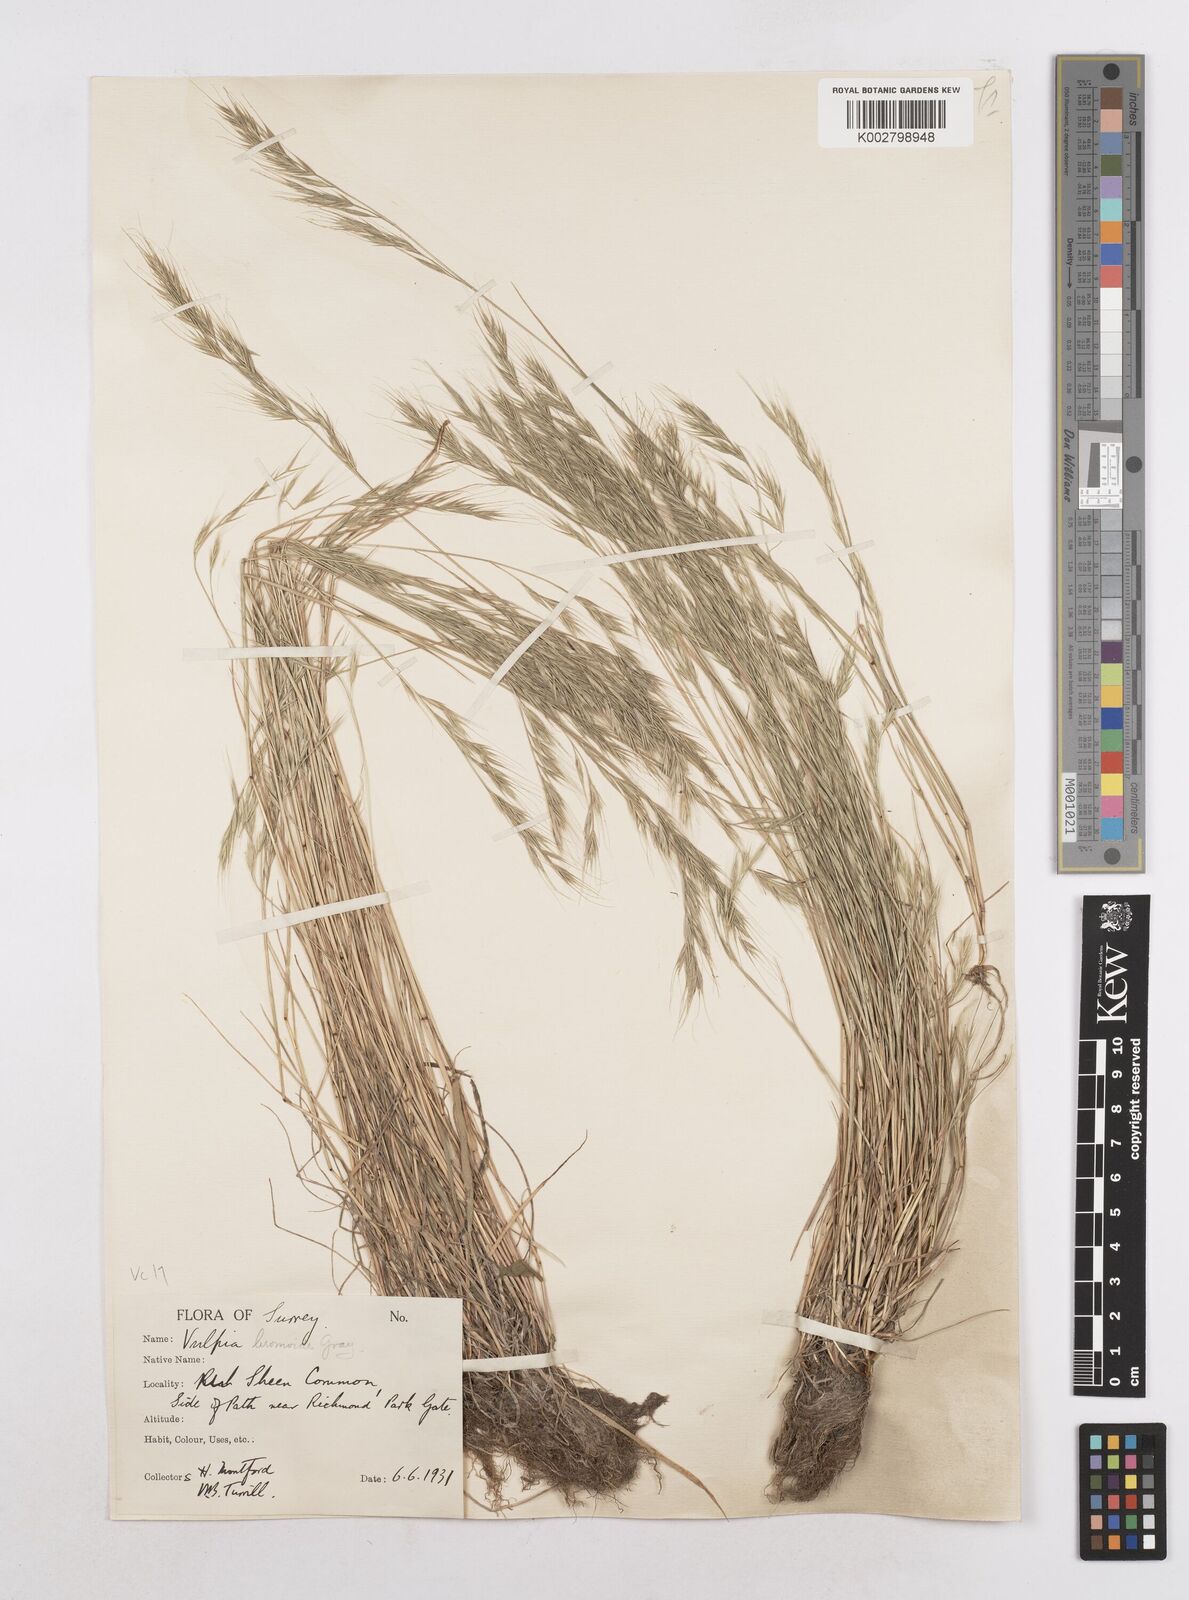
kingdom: Plantae
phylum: Tracheophyta
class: Liliopsida
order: Poales
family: Poaceae
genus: Festuca
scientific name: Festuca bromoides
